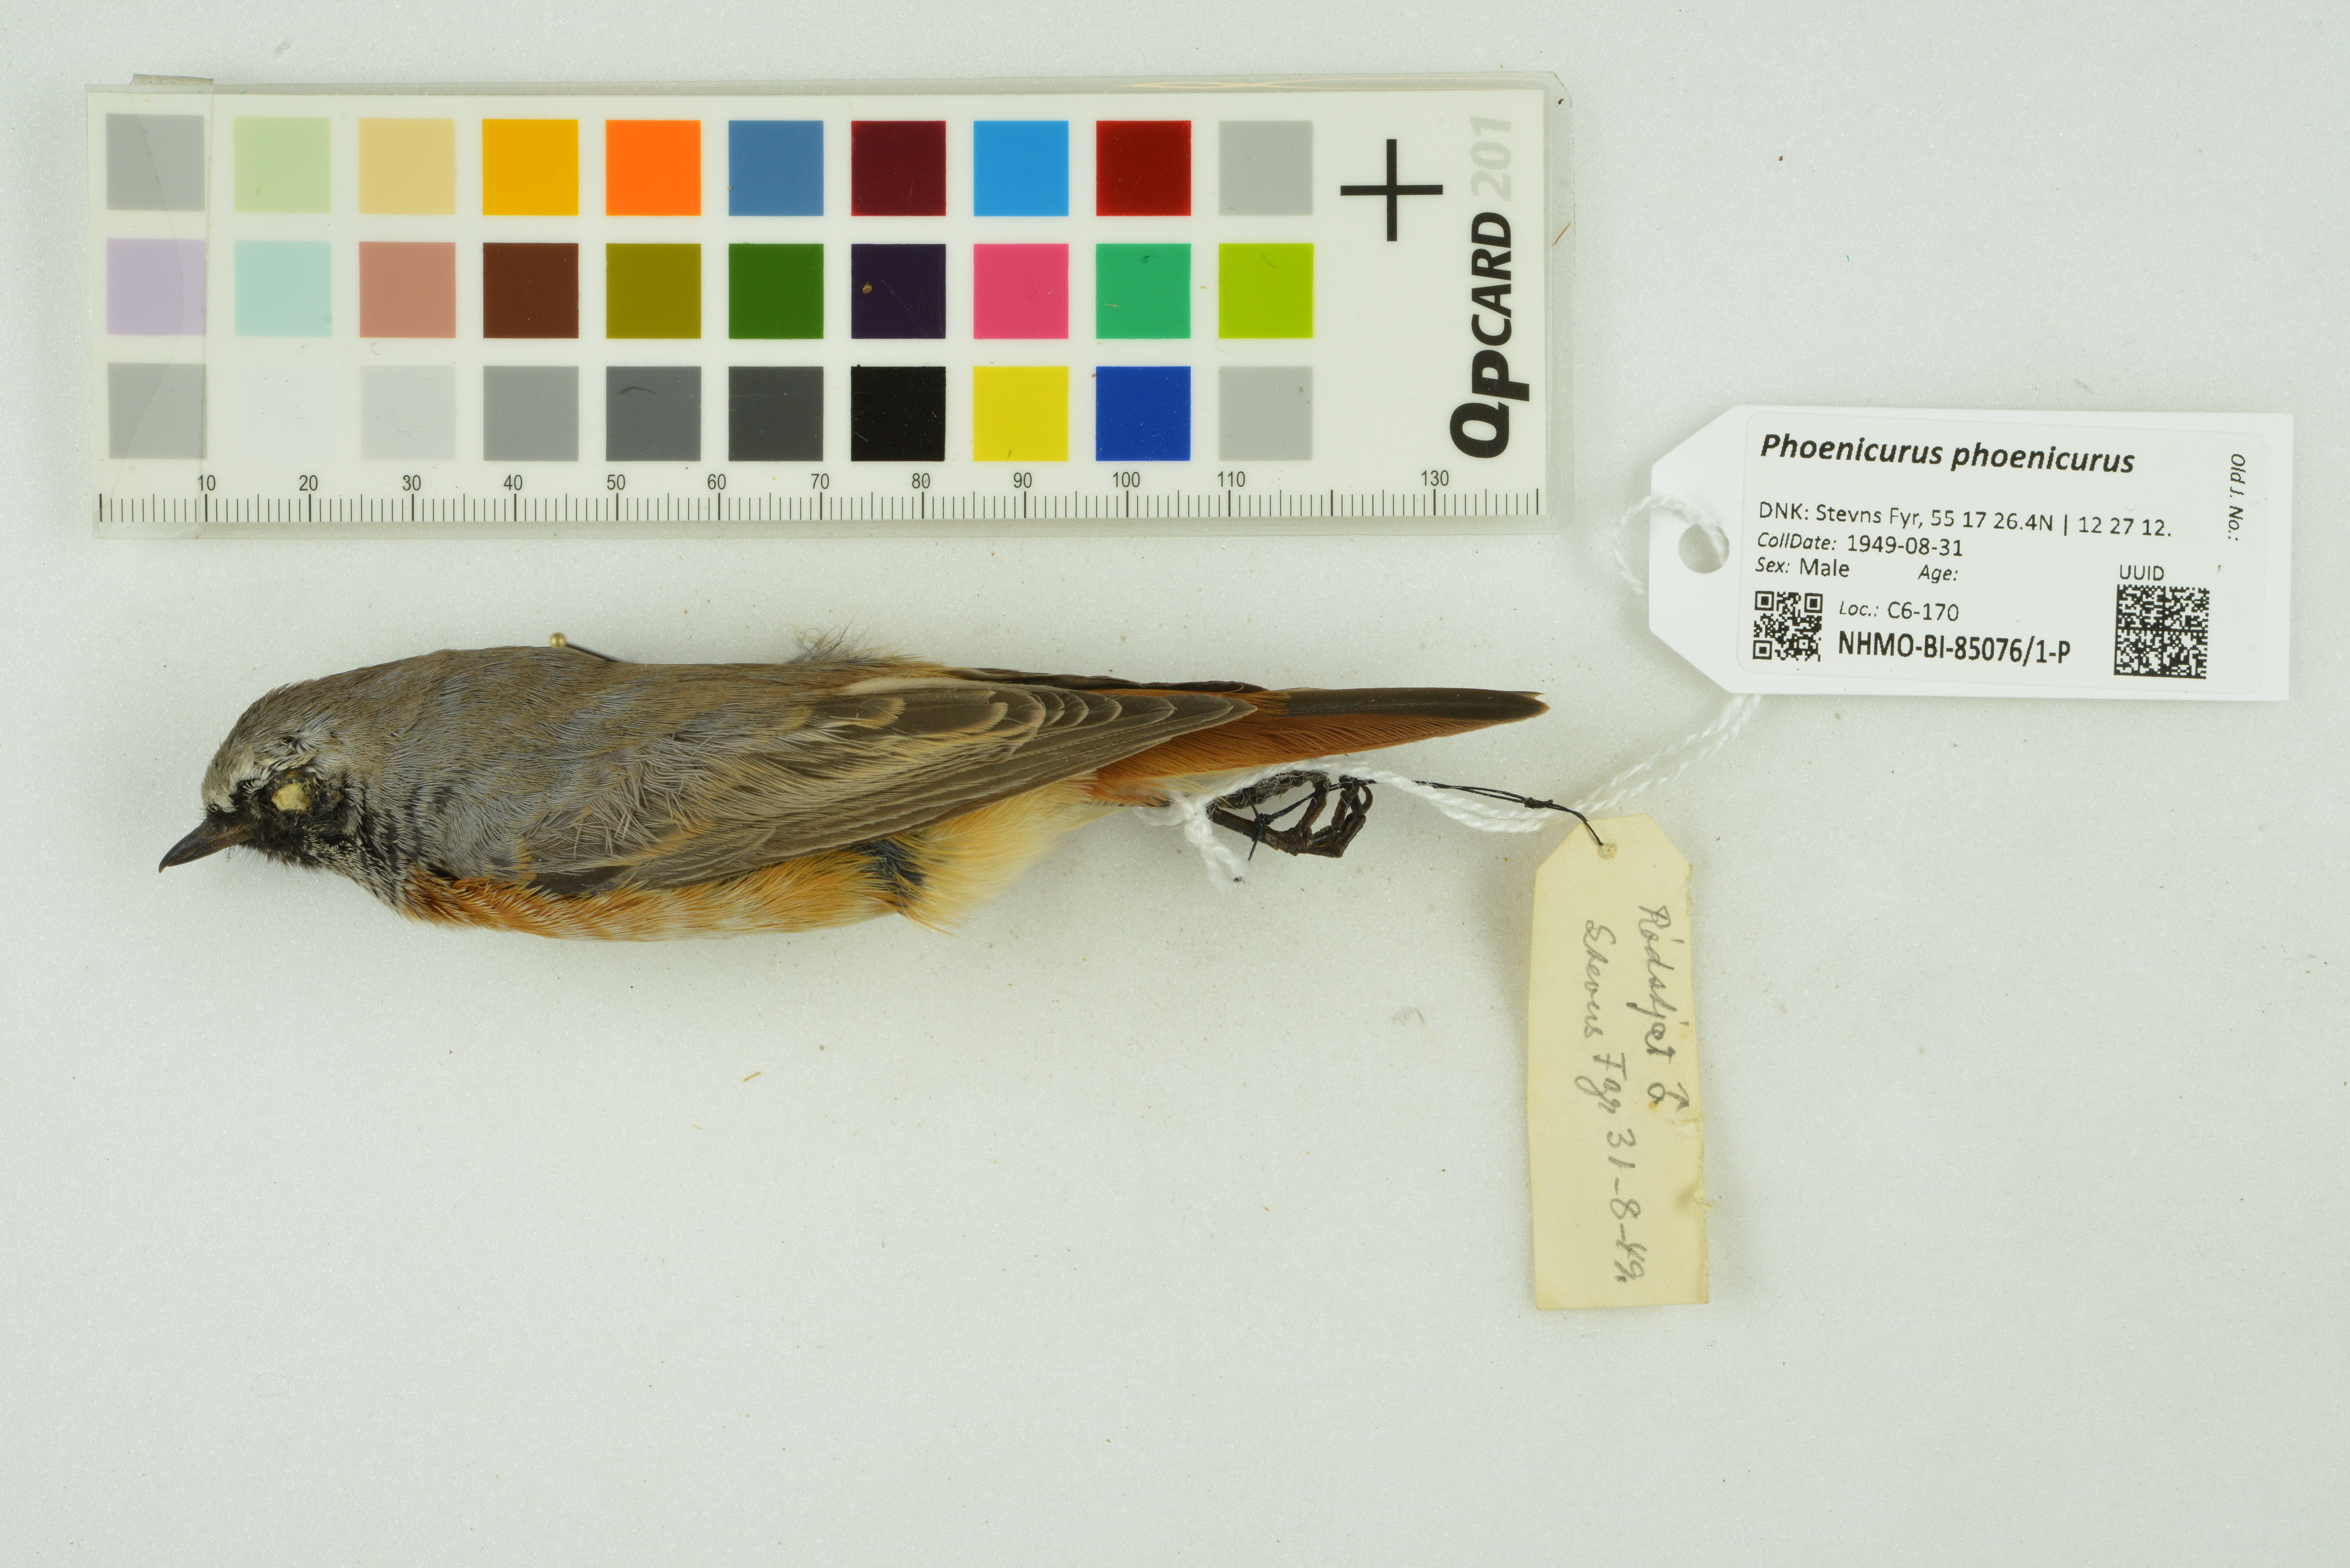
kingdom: Animalia
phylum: Chordata
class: Aves
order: Passeriformes
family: Muscicapidae
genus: Phoenicurus
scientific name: Phoenicurus phoenicurus
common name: Common redstart
